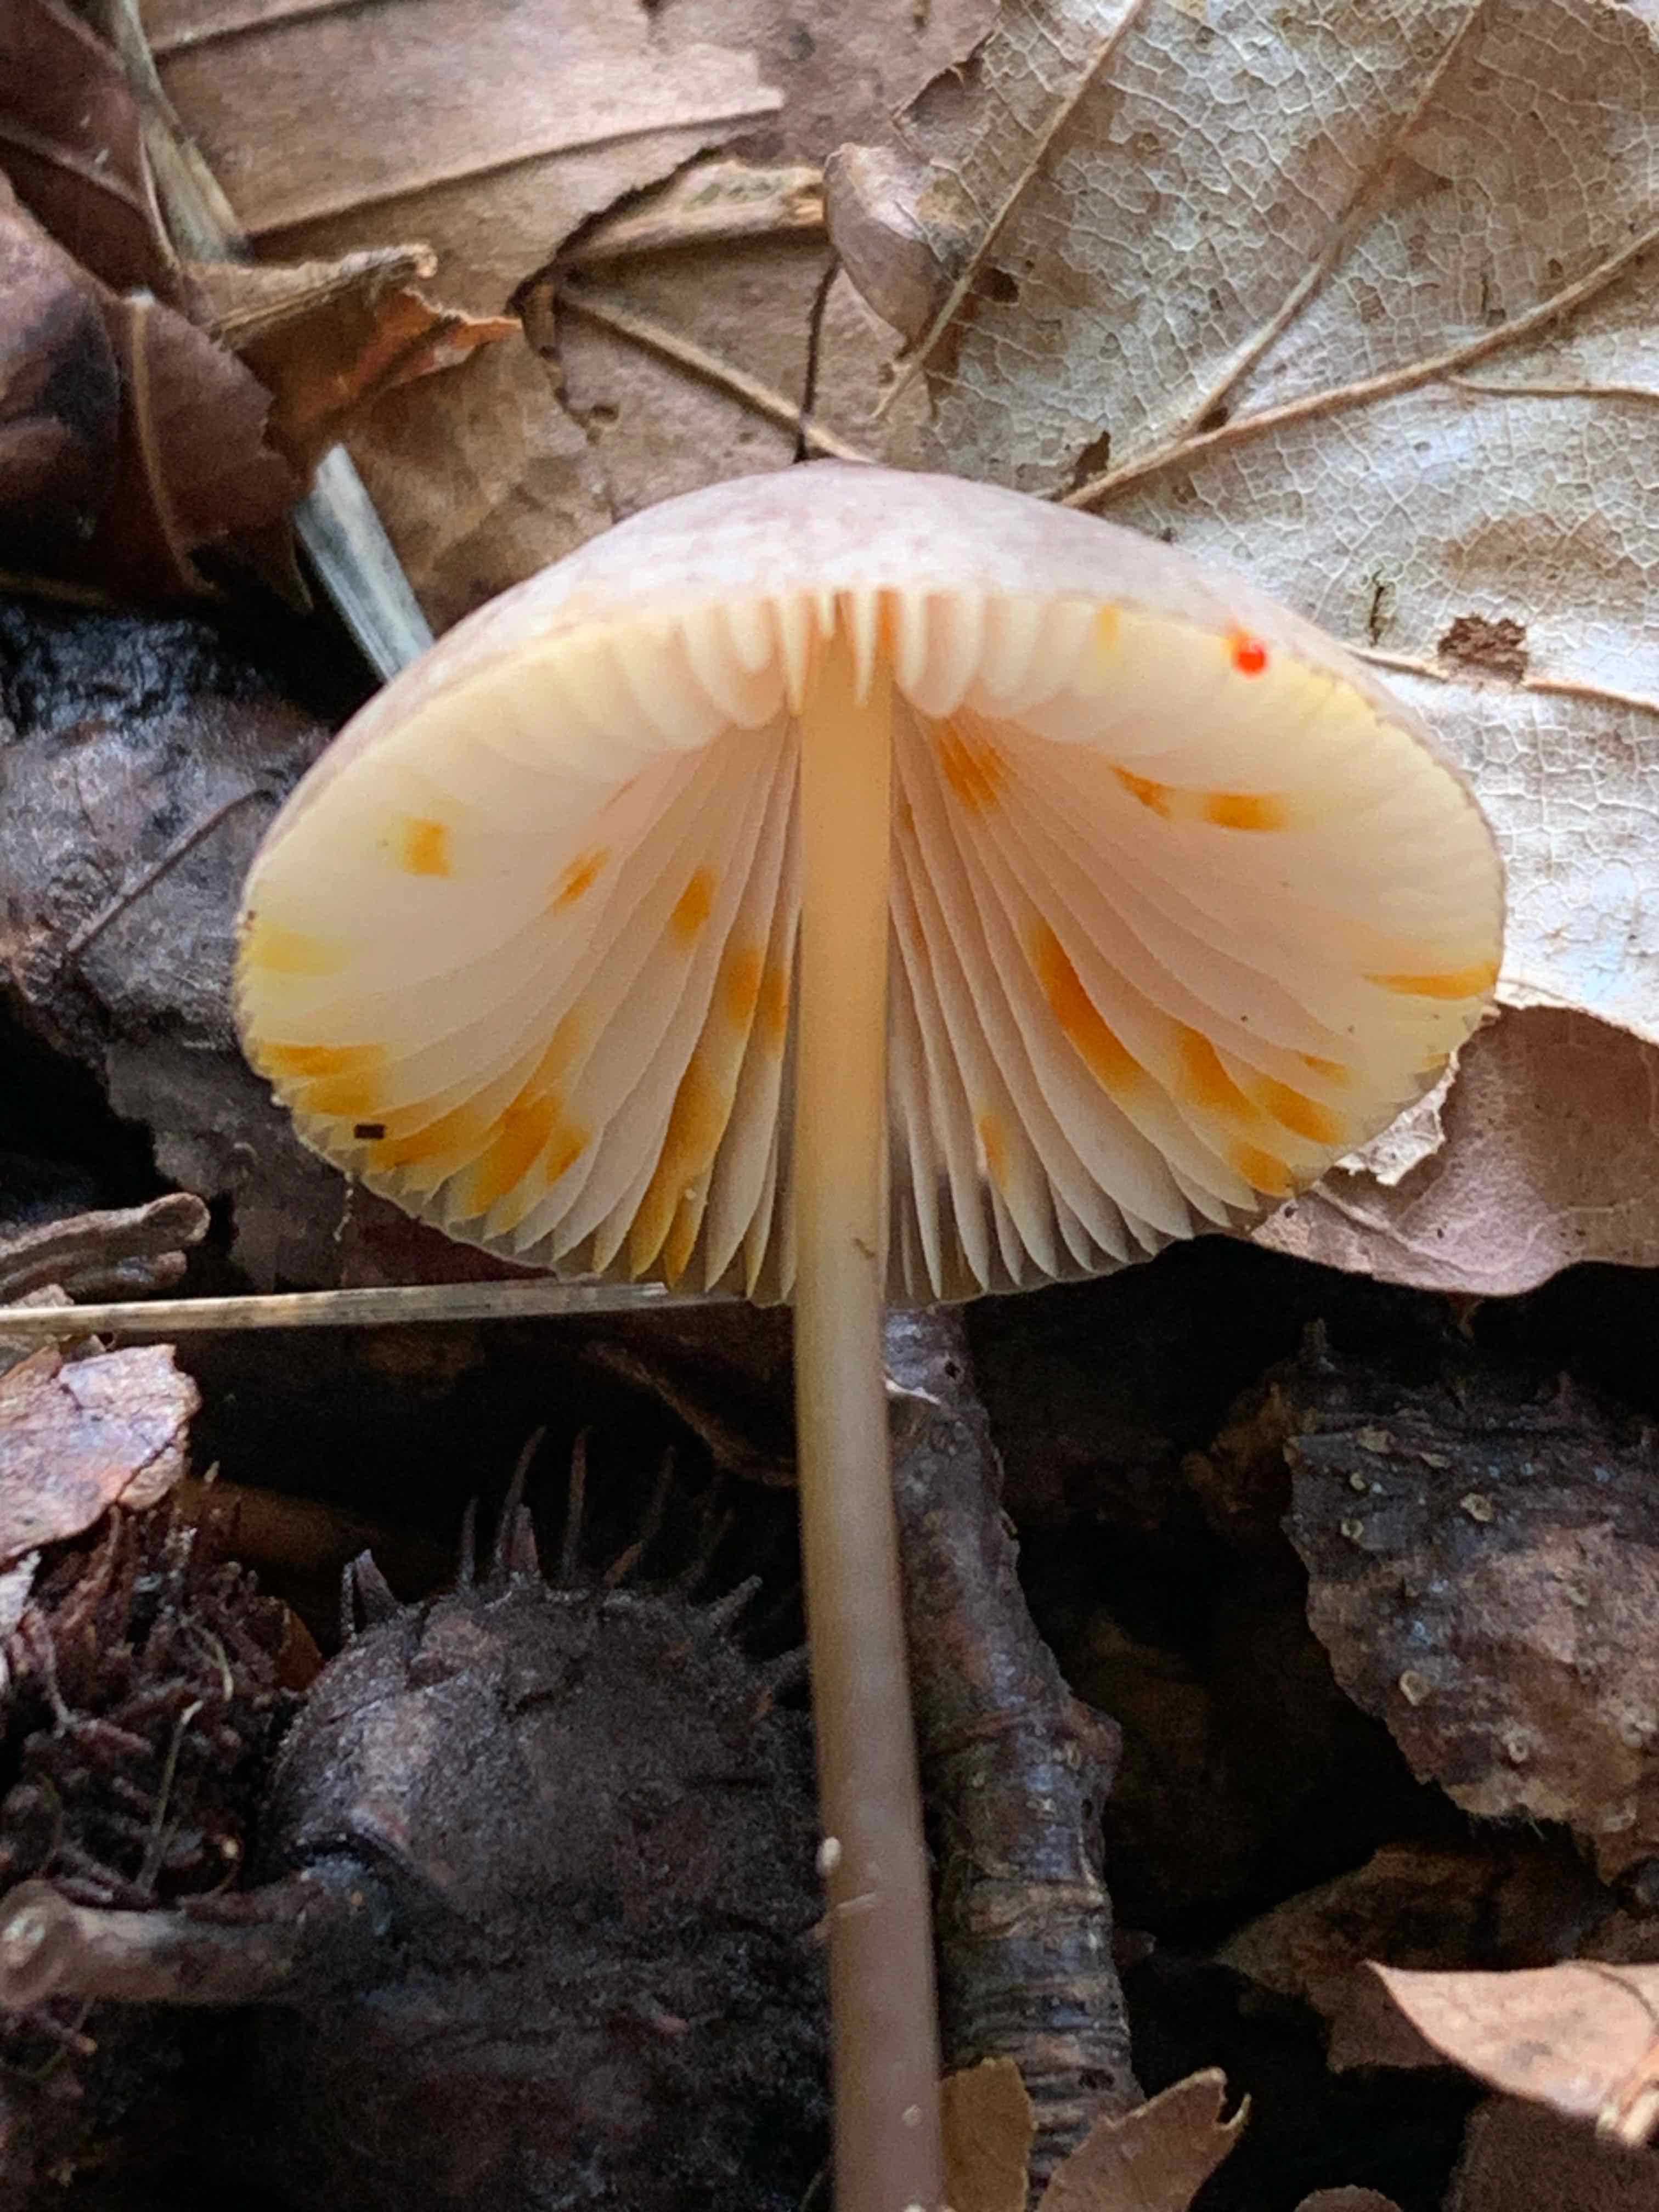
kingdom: Fungi
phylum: Basidiomycota
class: Agaricomycetes
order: Agaricales
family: Mycenaceae
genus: Mycena
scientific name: Mycena crocata
